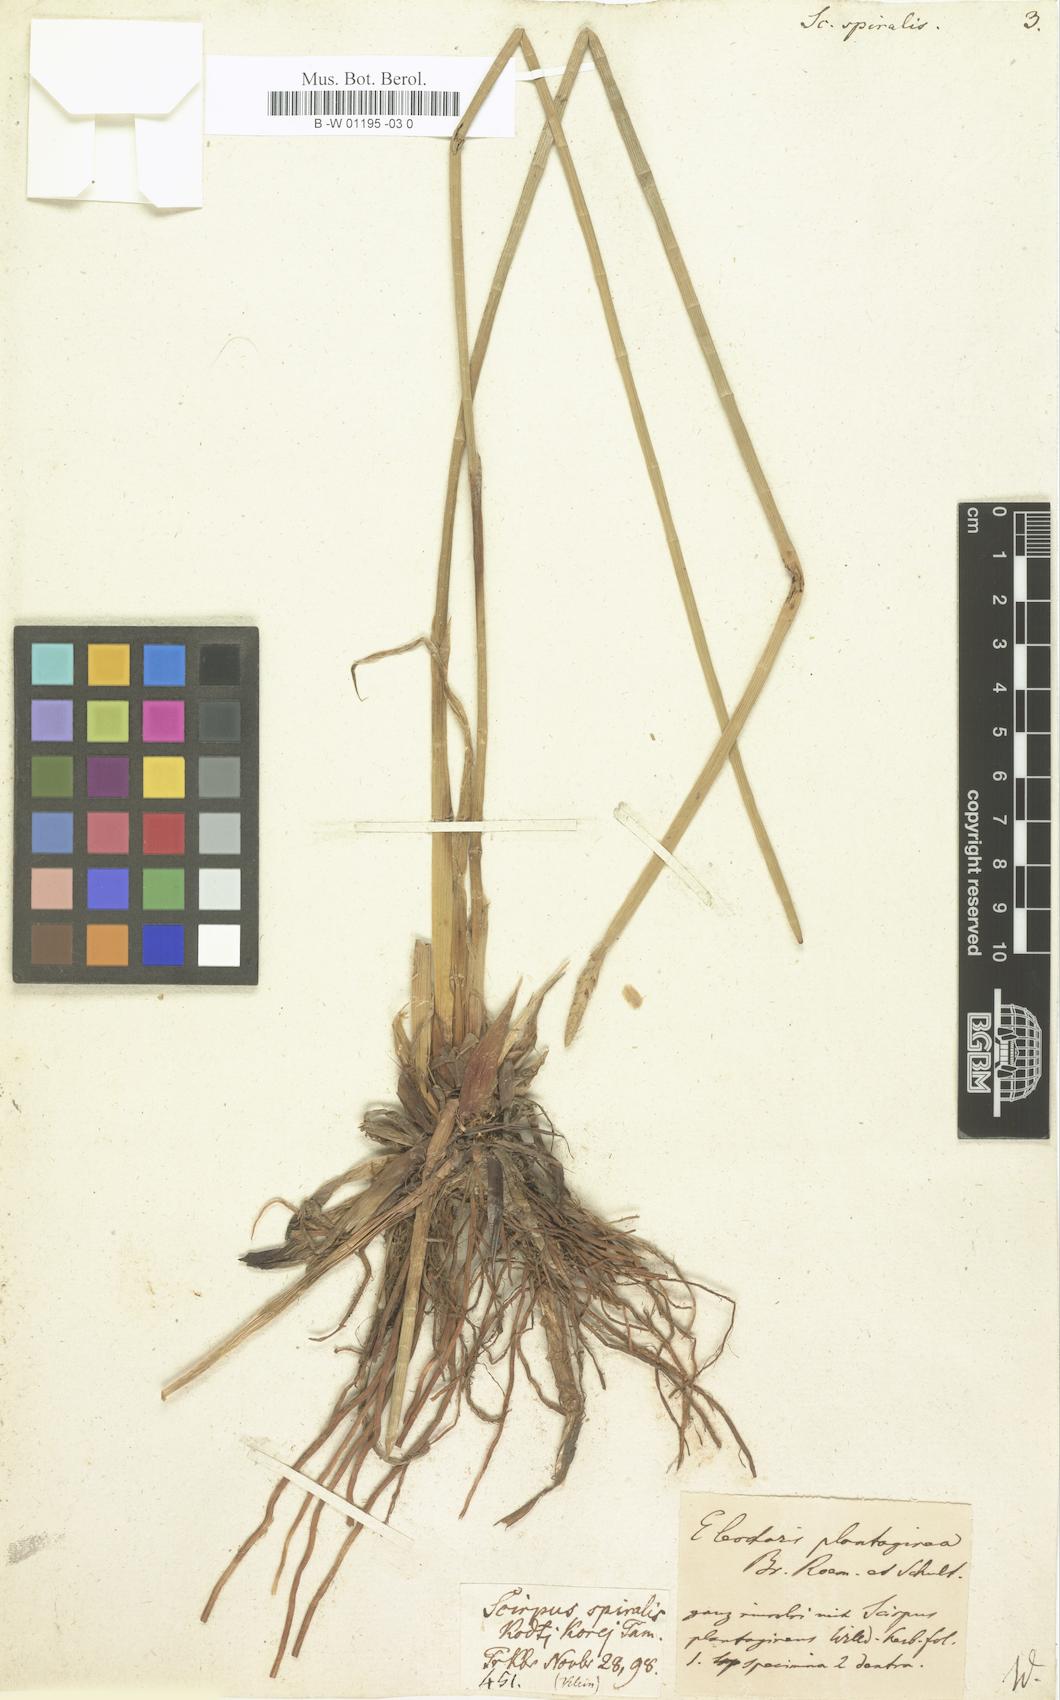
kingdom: Plantae
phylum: Tracheophyta
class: Liliopsida
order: Poales
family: Cyperaceae
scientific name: Cyperaceae
